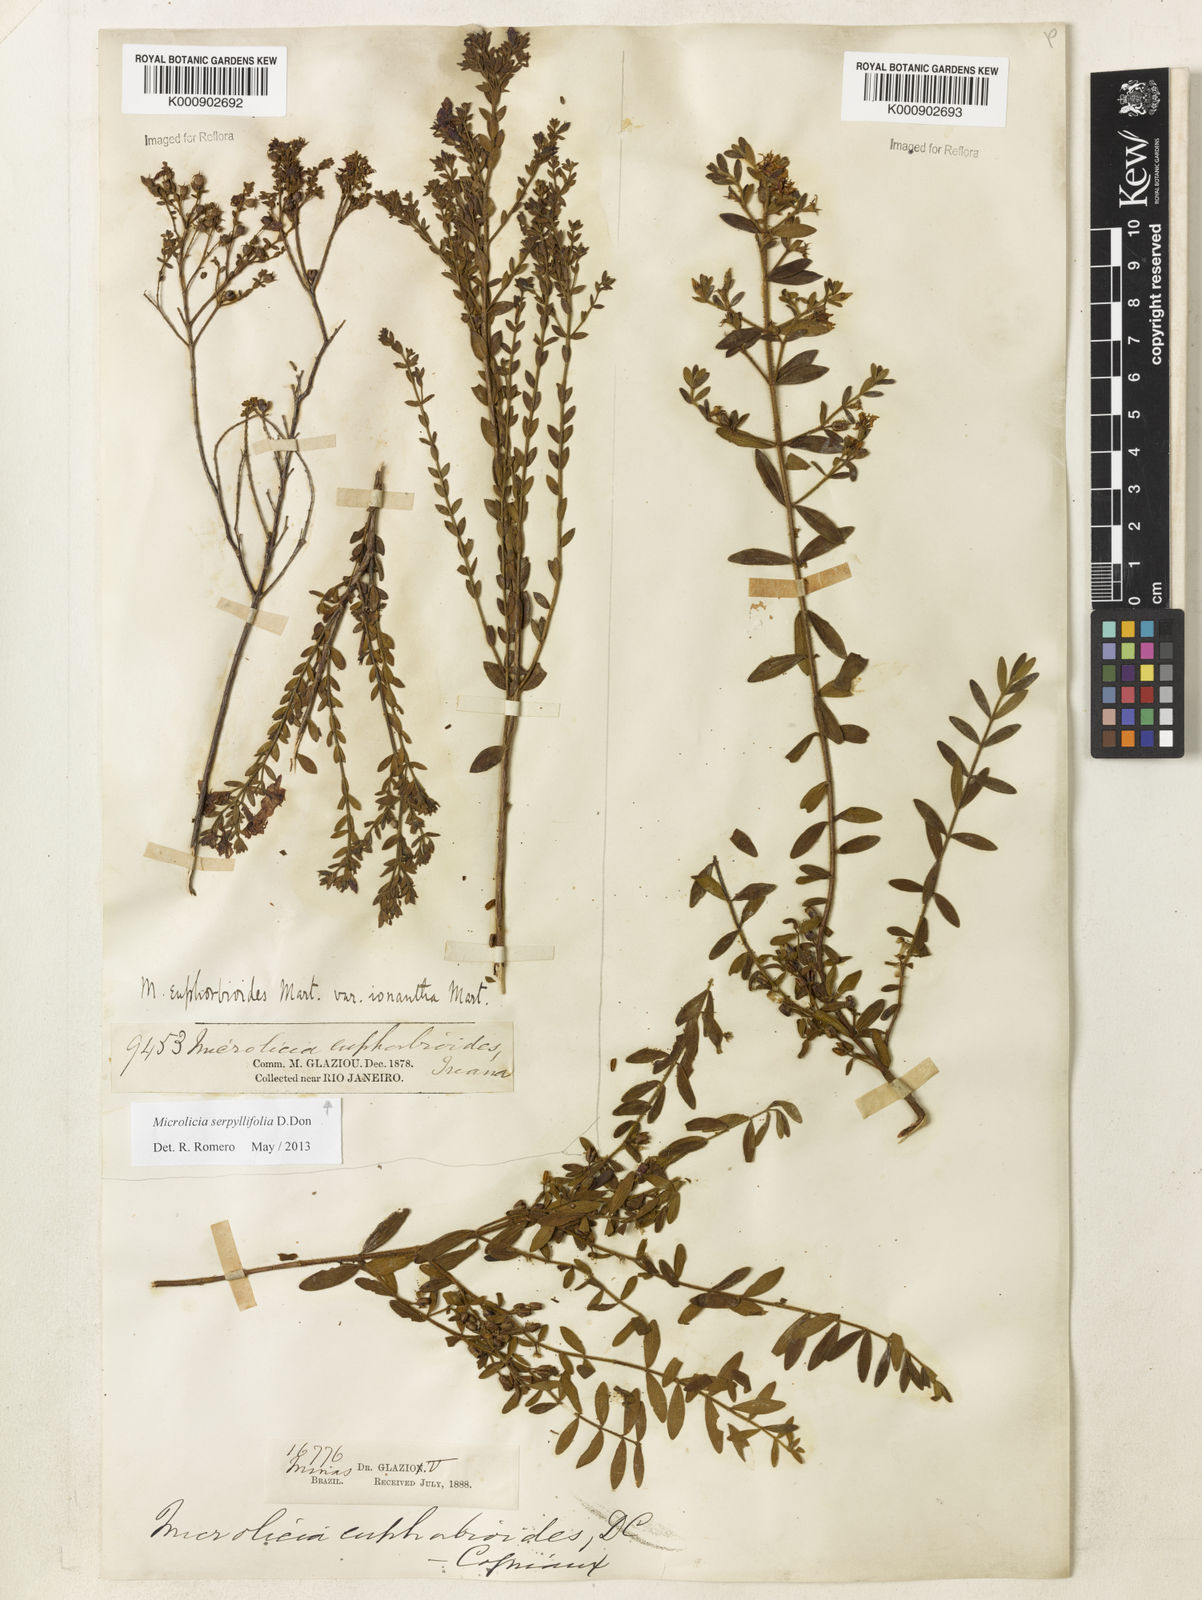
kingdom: Plantae
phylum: Tracheophyta
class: Magnoliopsida
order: Myrtales
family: Melastomataceae
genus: Microlicia
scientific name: Microlicia euphorbioides
